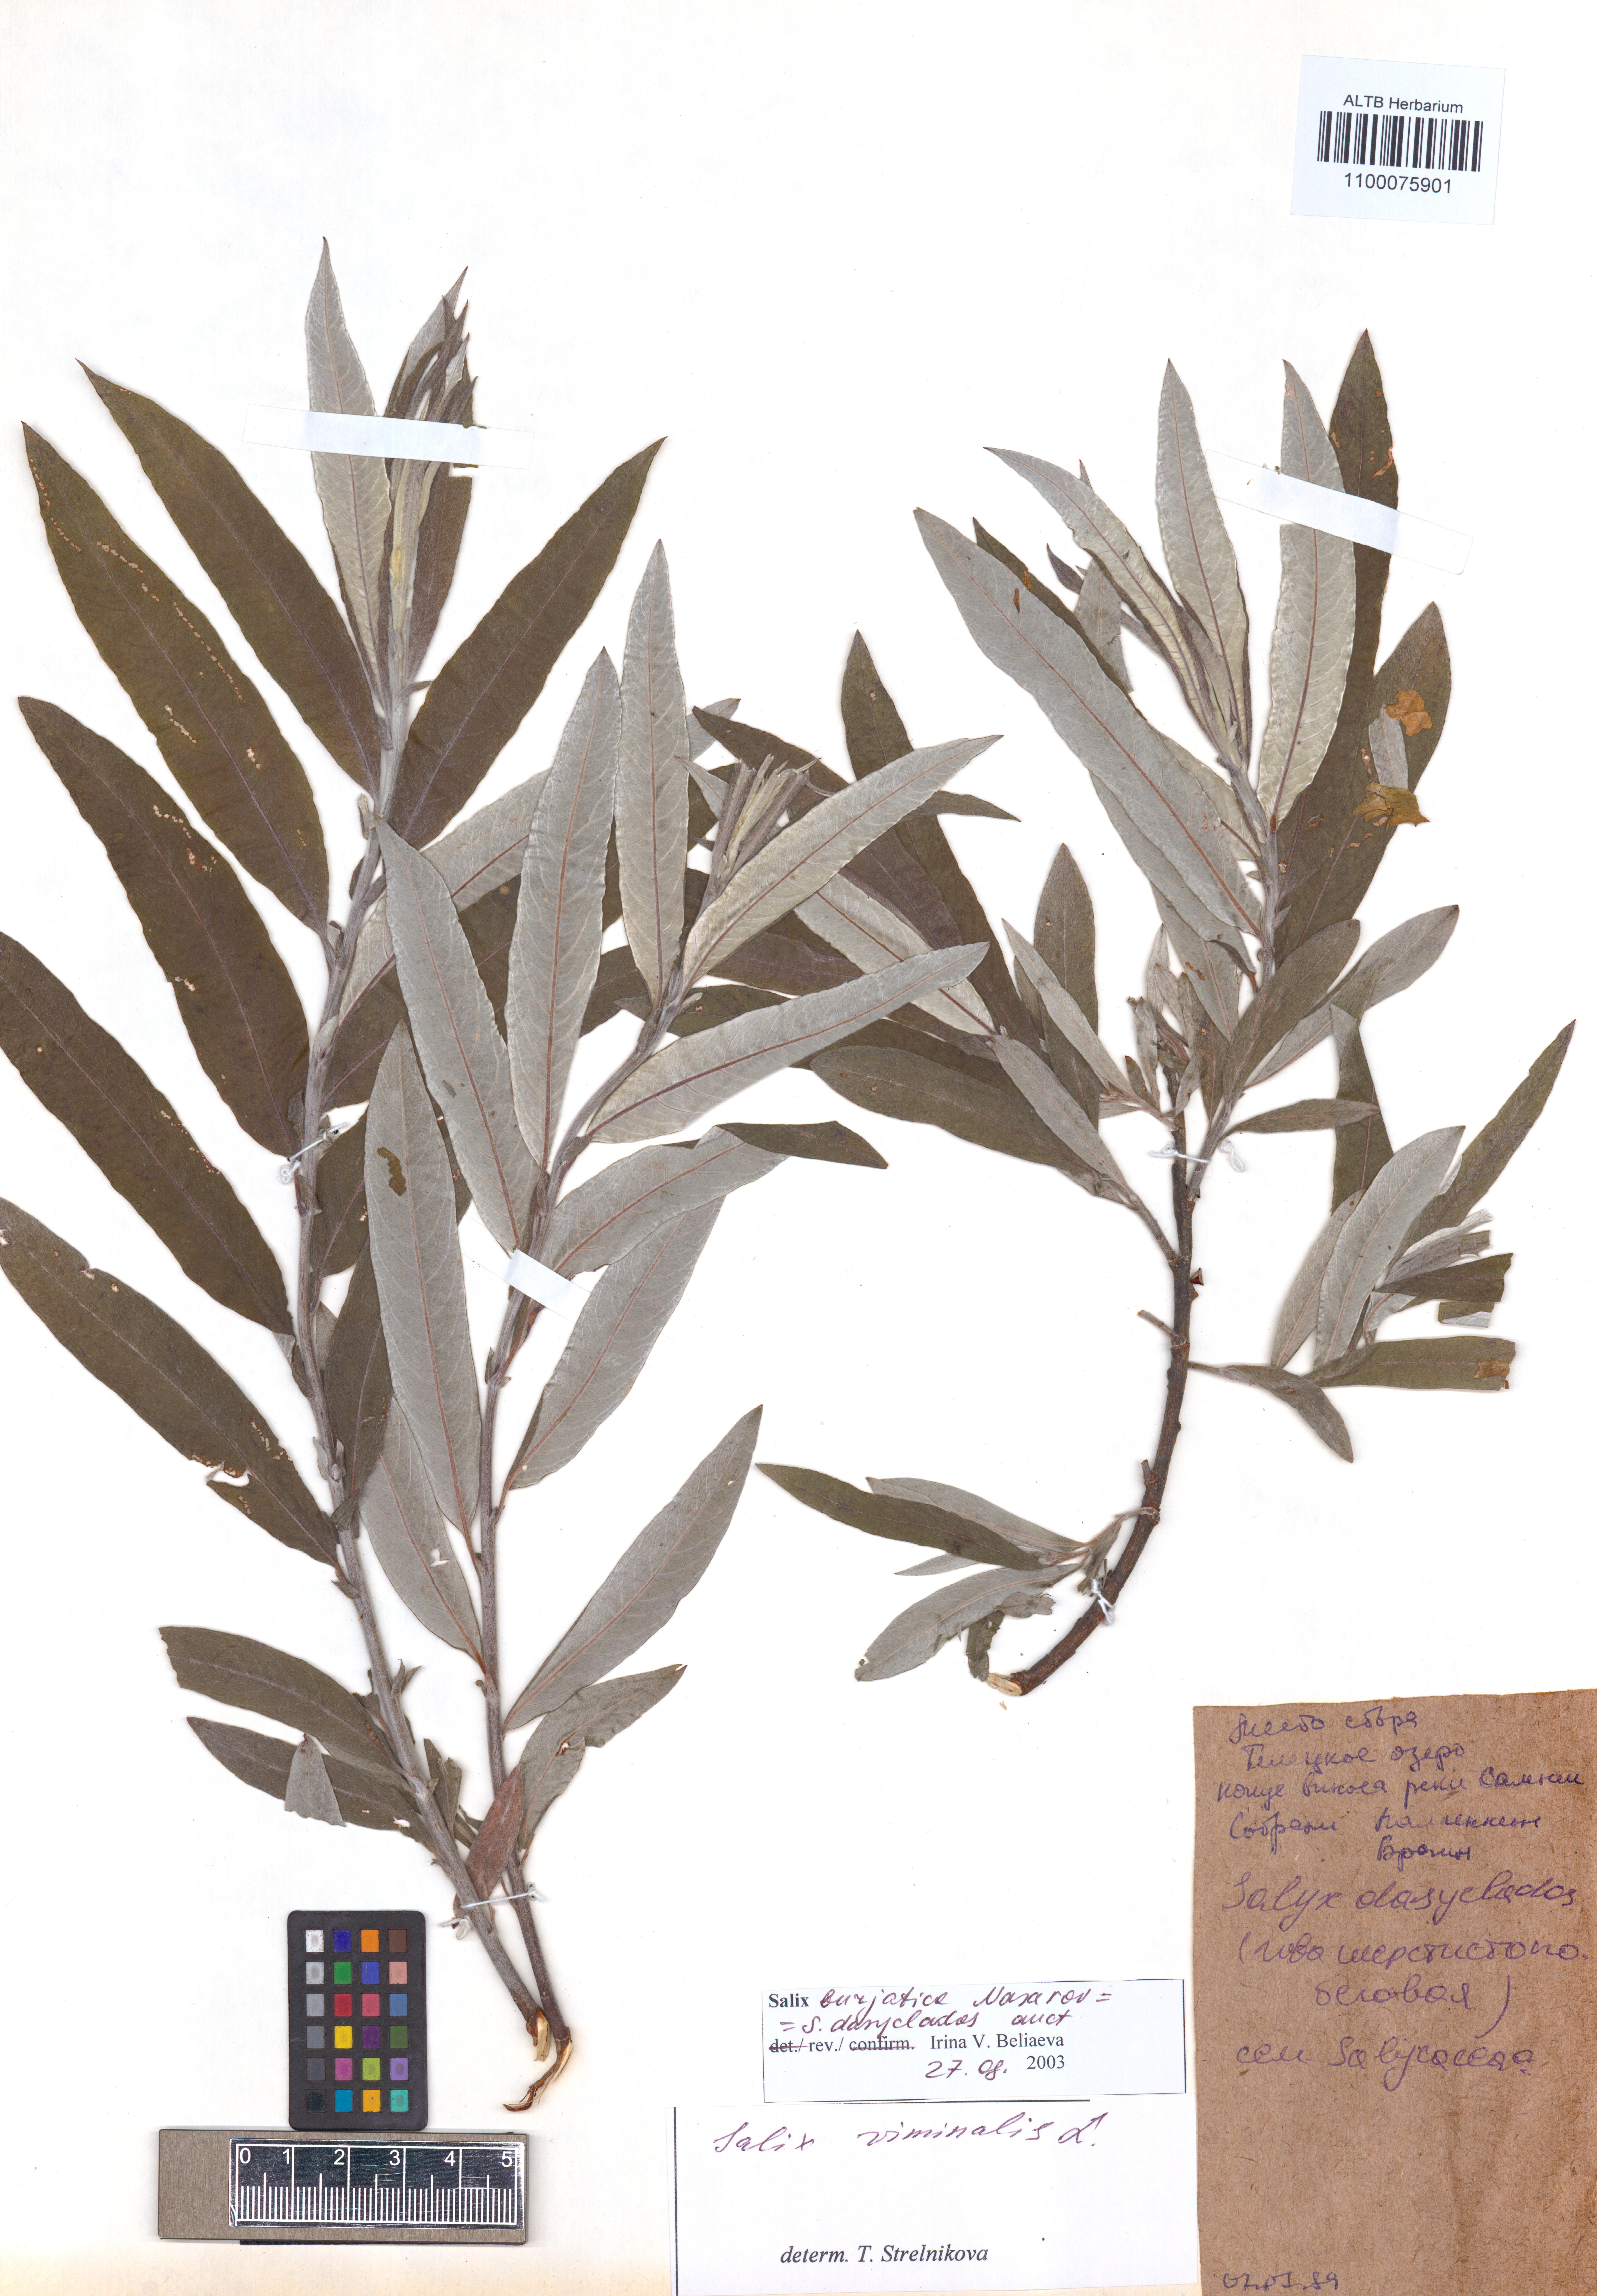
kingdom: Plantae
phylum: Tracheophyta
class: Magnoliopsida
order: Malpighiales
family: Salicaceae
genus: Salix
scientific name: Salix gmelinii
